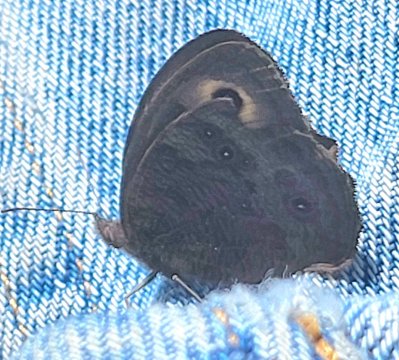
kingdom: Animalia
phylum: Arthropoda
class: Insecta
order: Lepidoptera
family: Nymphalidae
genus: Cercyonis
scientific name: Cercyonis pegala
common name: Common Wood-Nymph
